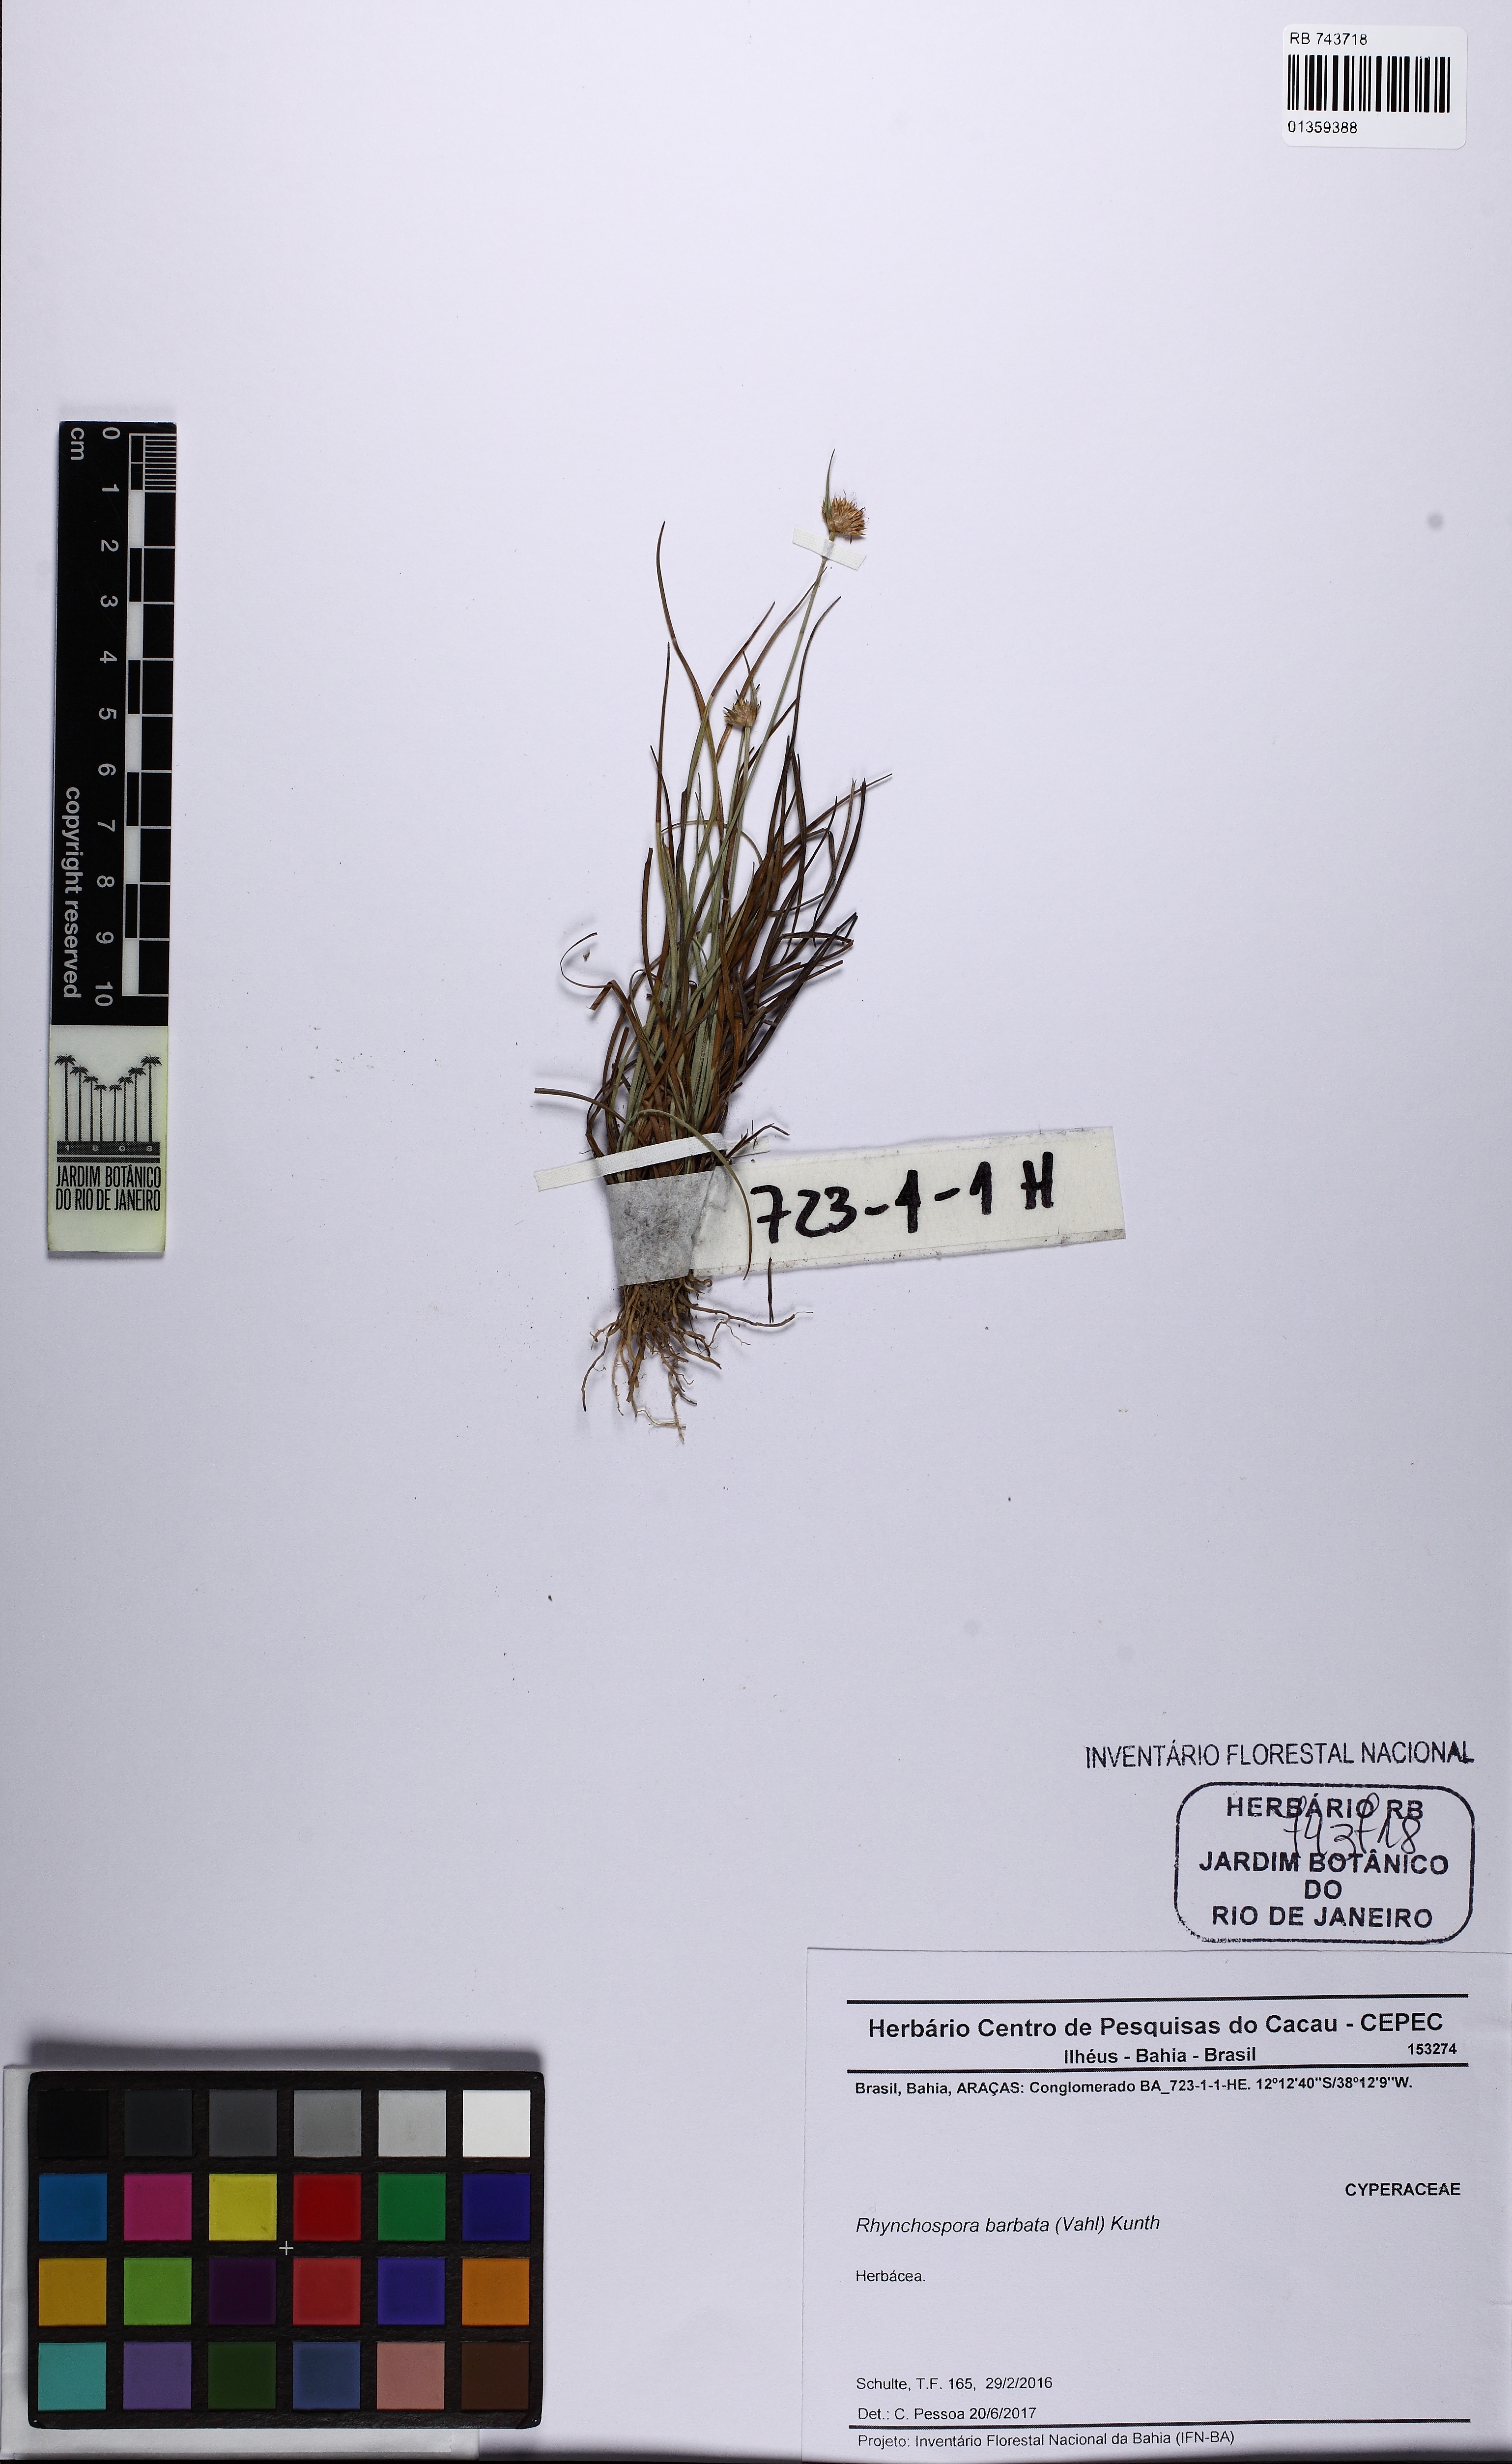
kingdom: Plantae
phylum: Tracheophyta
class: Liliopsida
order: Poales
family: Cyperaceae
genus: Rhynchospora
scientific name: Rhynchospora barbata
